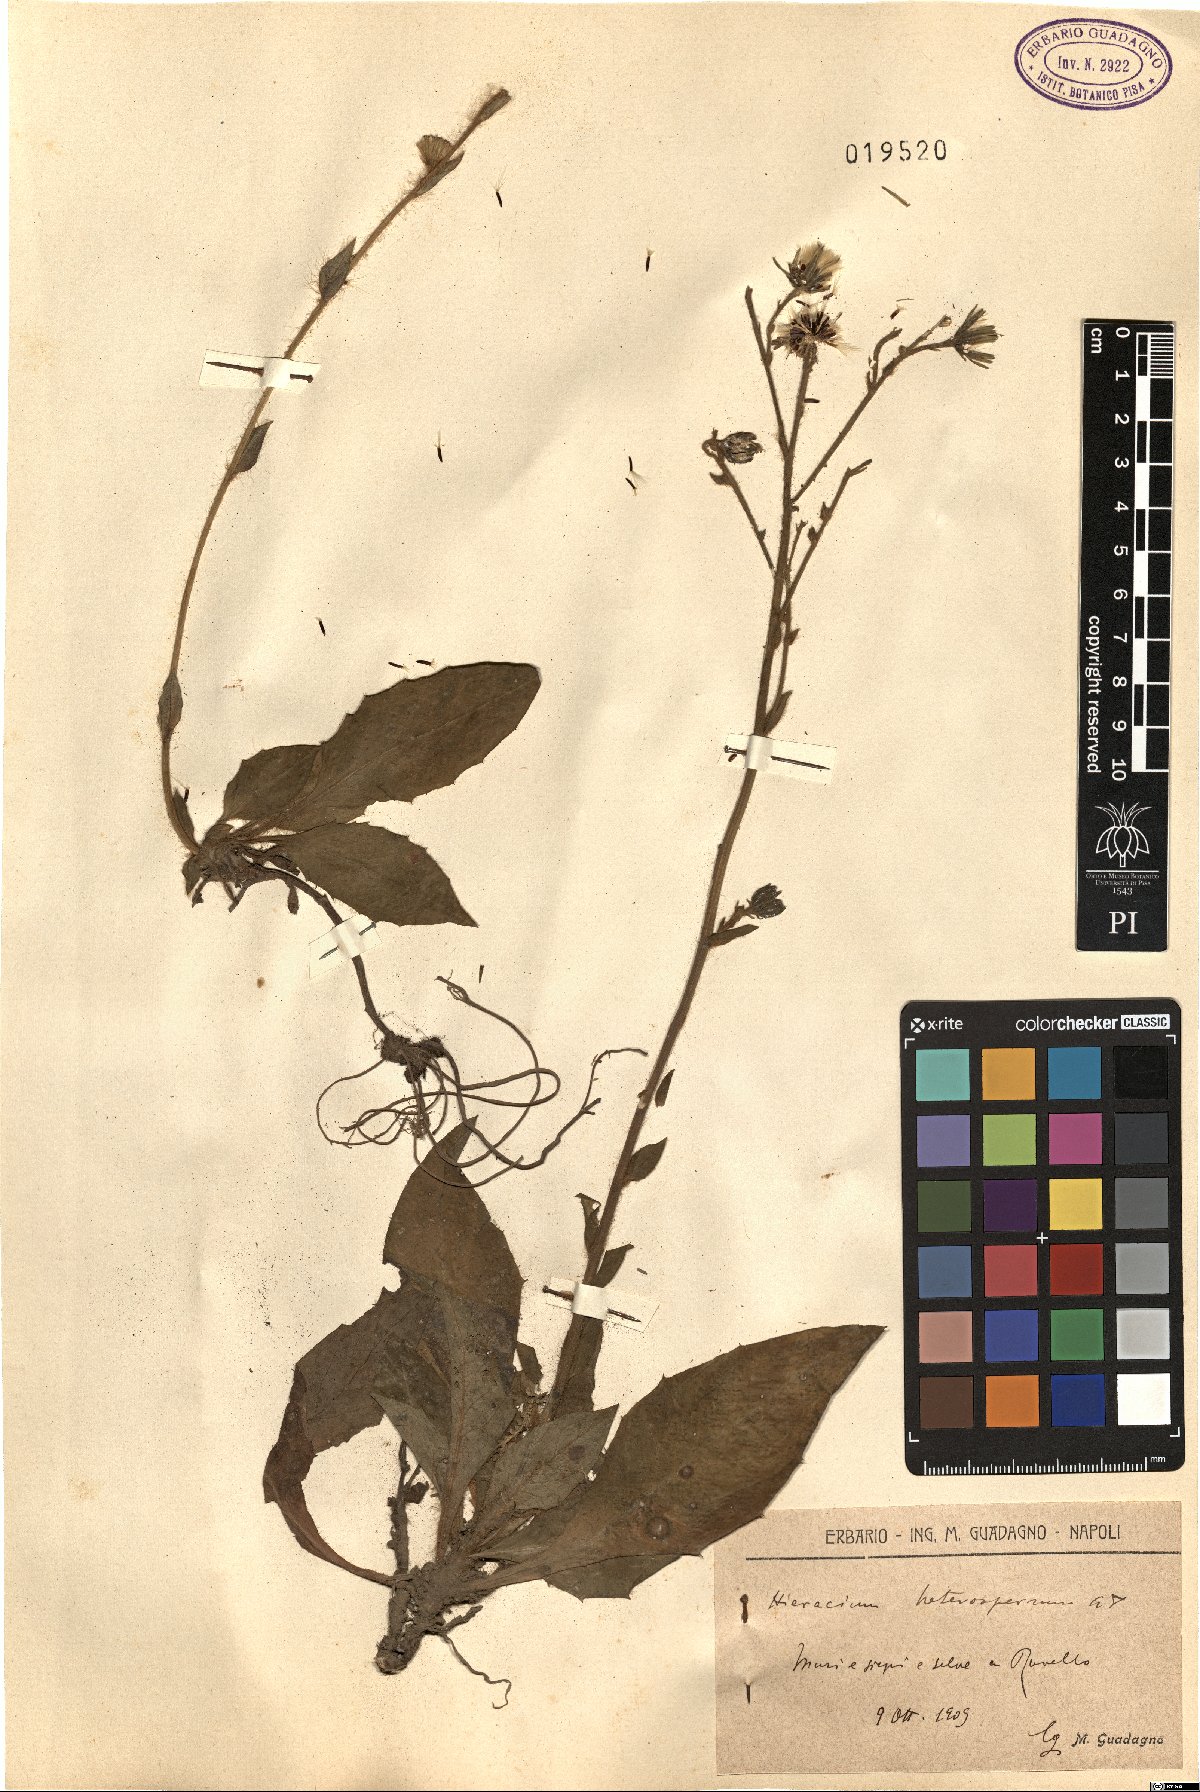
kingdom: Plantae
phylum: Tracheophyta
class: Magnoliopsida
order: Asterales
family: Asteraceae
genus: Hieracium
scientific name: Hieracium racemosum
